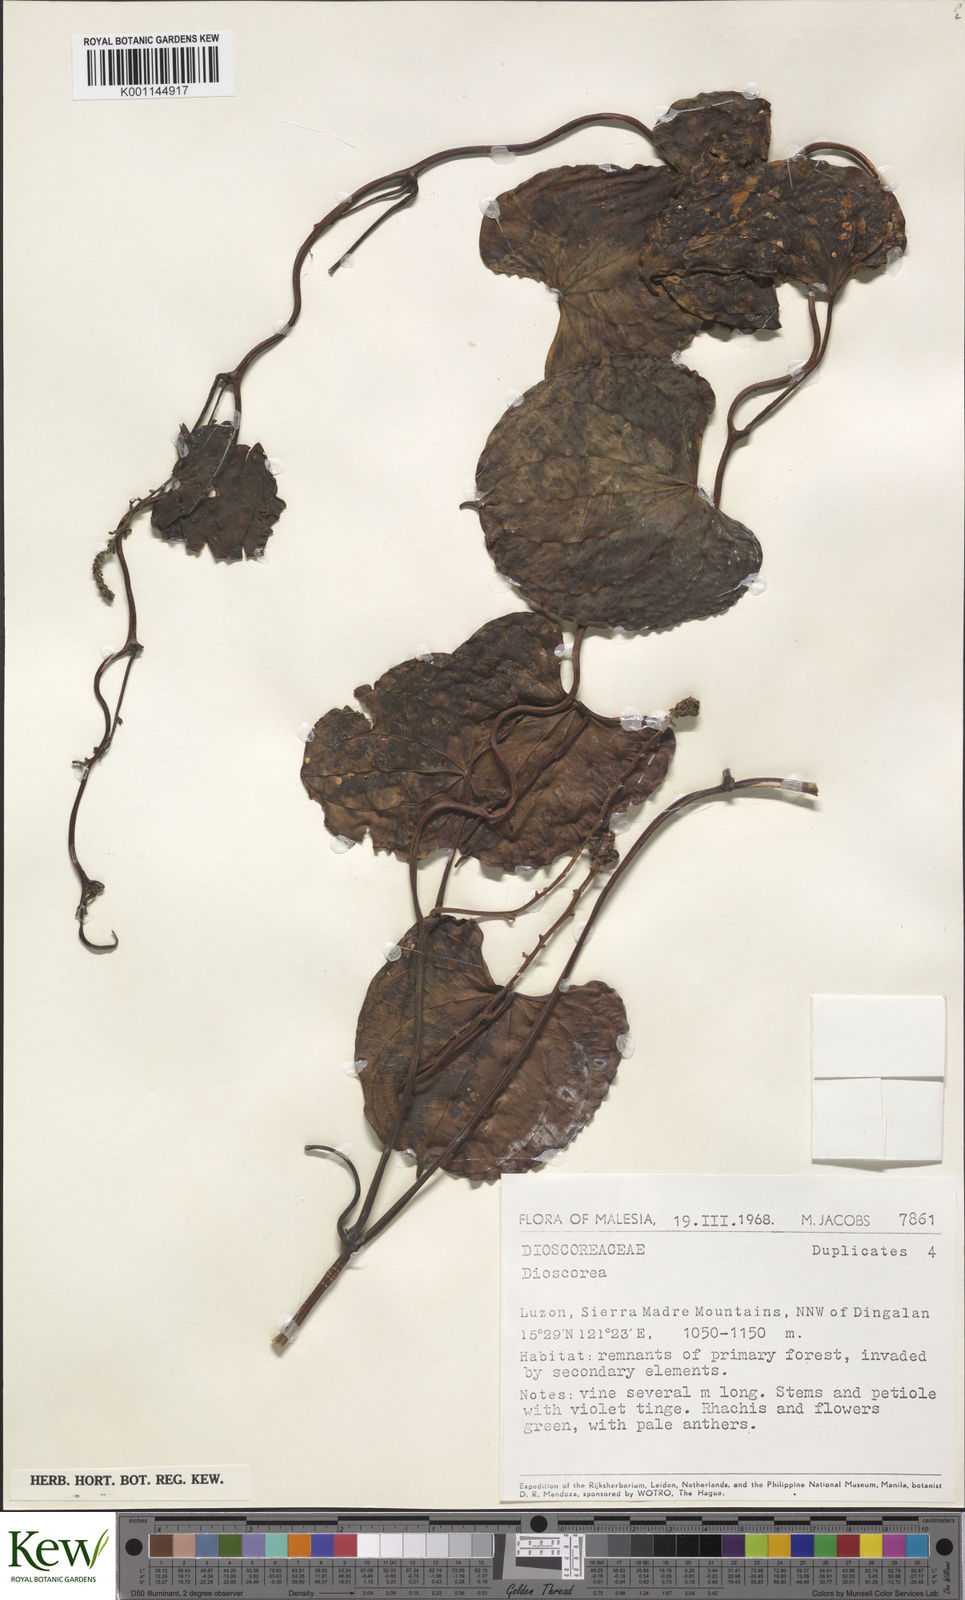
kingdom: Plantae
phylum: Tracheophyta
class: Liliopsida
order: Dioscoreales
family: Dioscoreaceae
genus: Dioscorea
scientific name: Dioscorea
